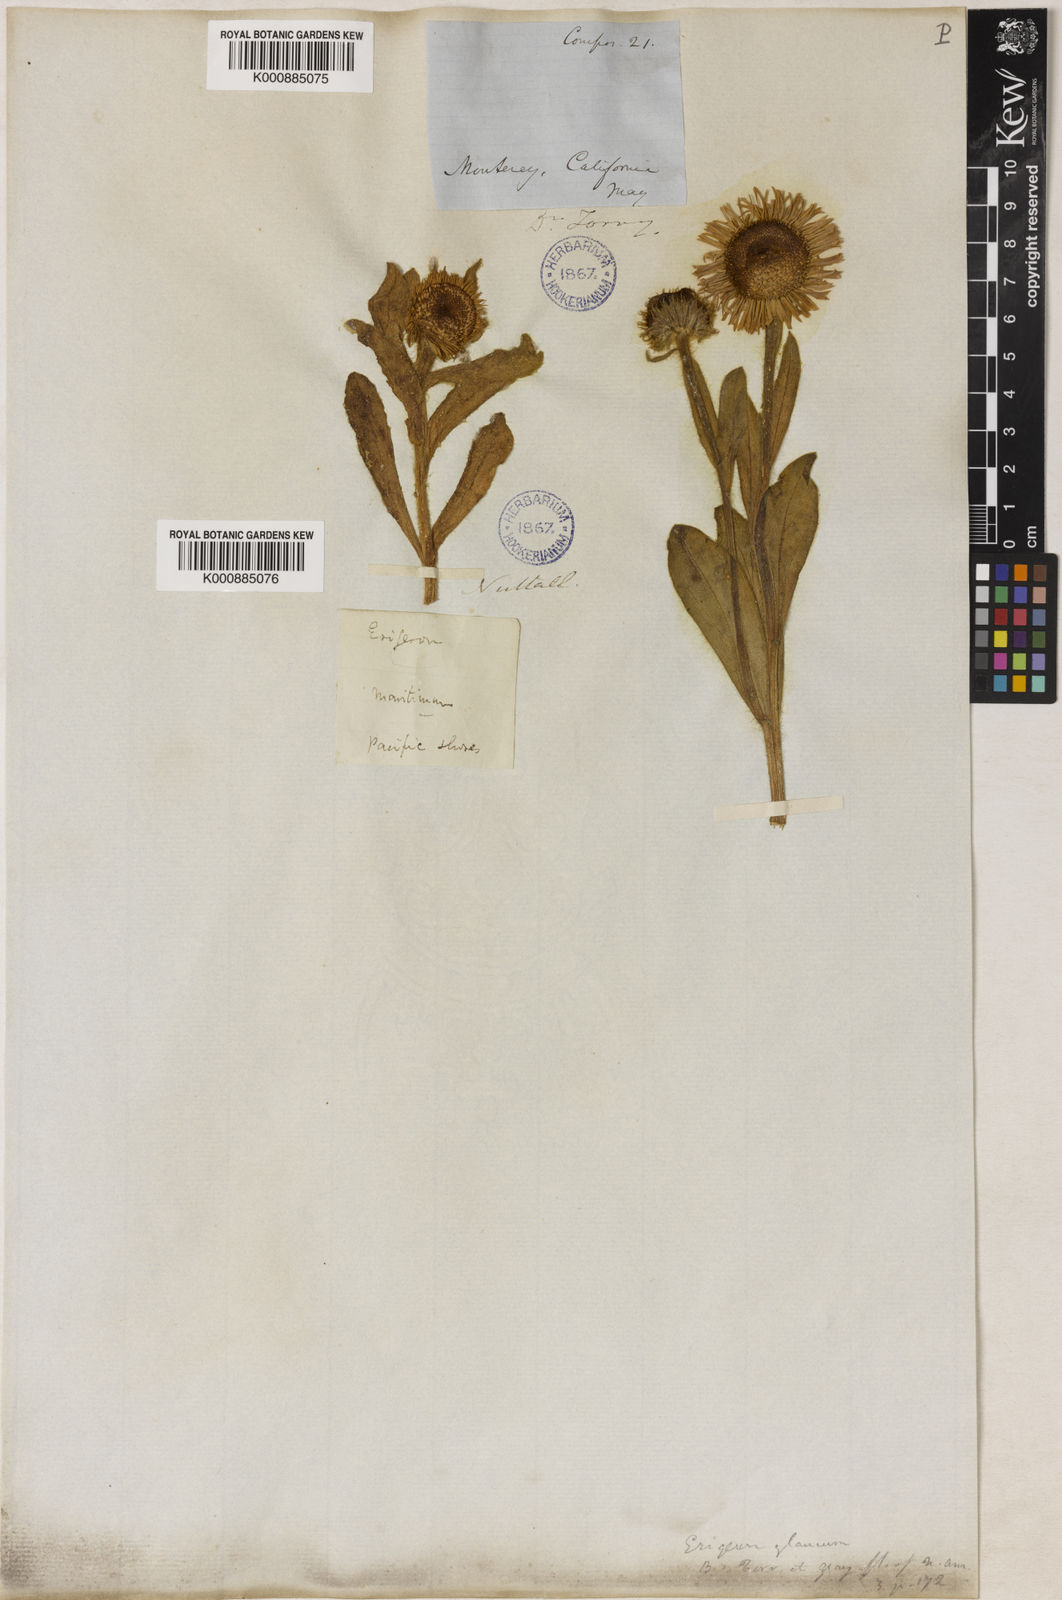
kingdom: Plantae
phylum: Tracheophyta
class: Magnoliopsida
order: Asterales
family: Asteraceae
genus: Erigeron
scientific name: Erigeron glaucus
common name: Seaside daisy
